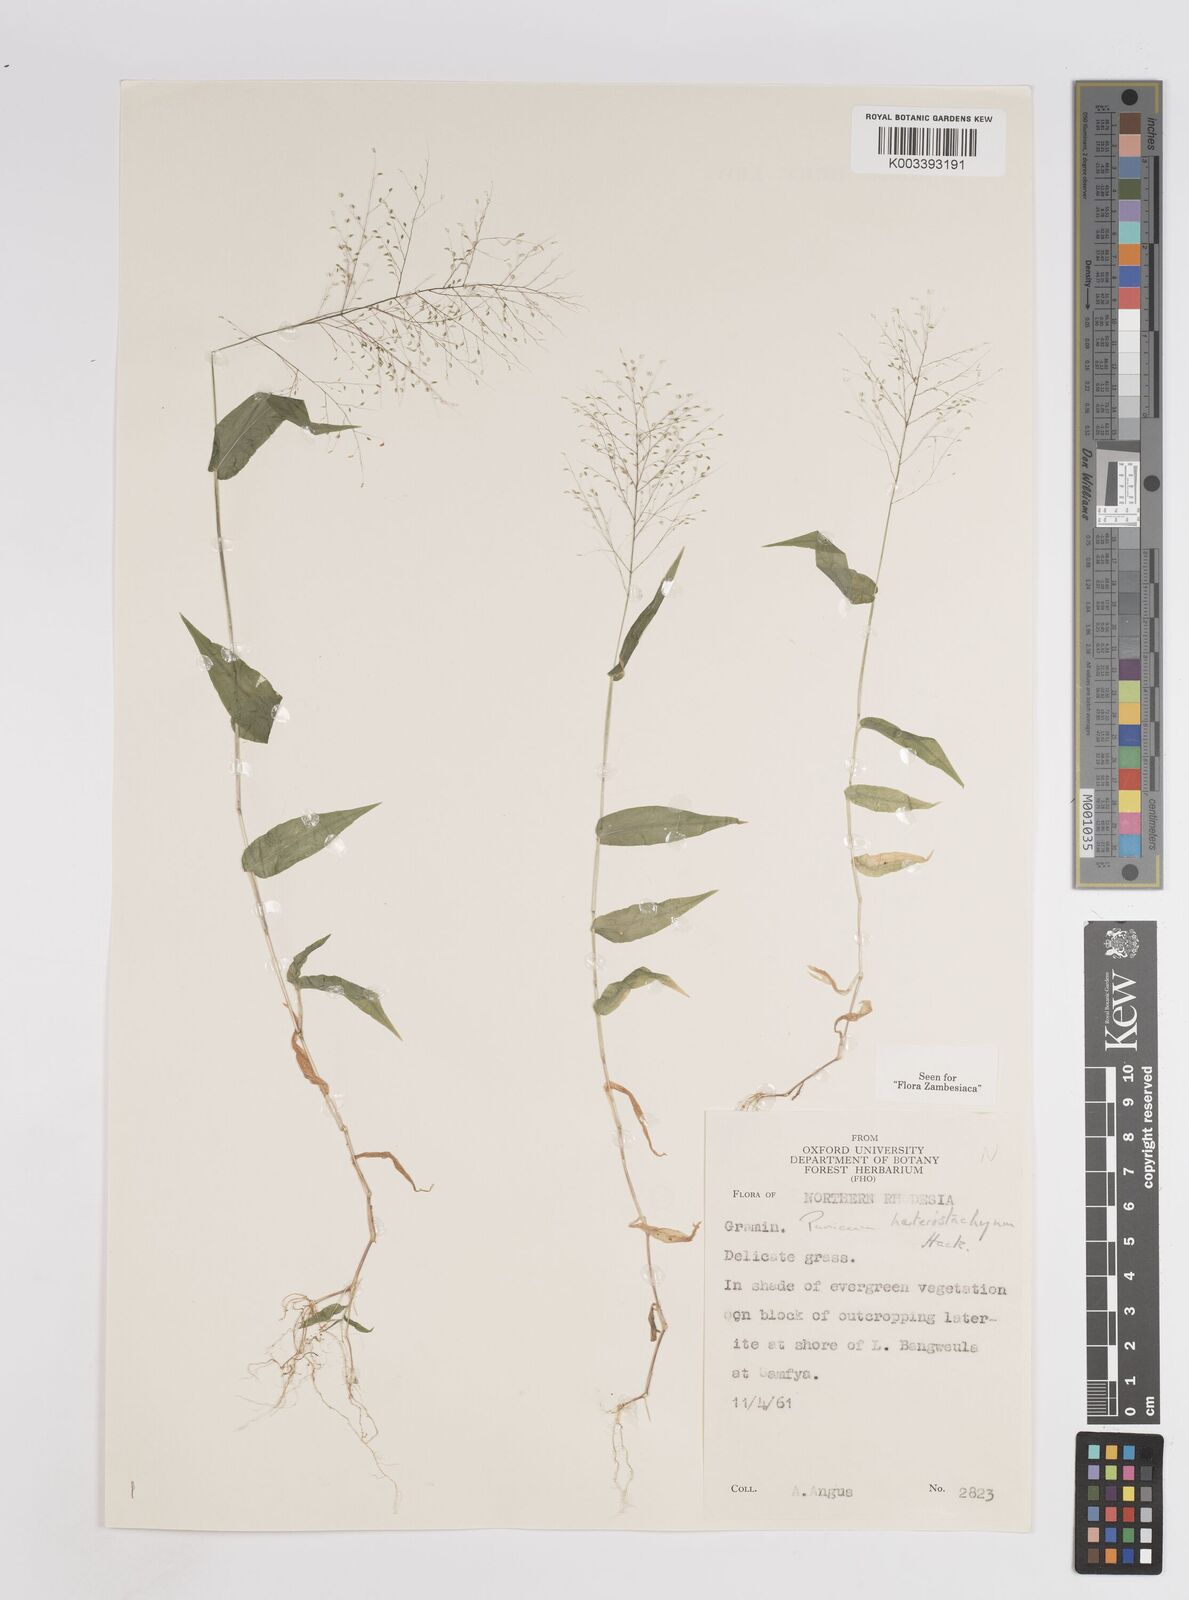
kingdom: Plantae
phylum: Tracheophyta
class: Liliopsida
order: Poales
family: Poaceae
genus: Panicum
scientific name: Panicum hirtum
